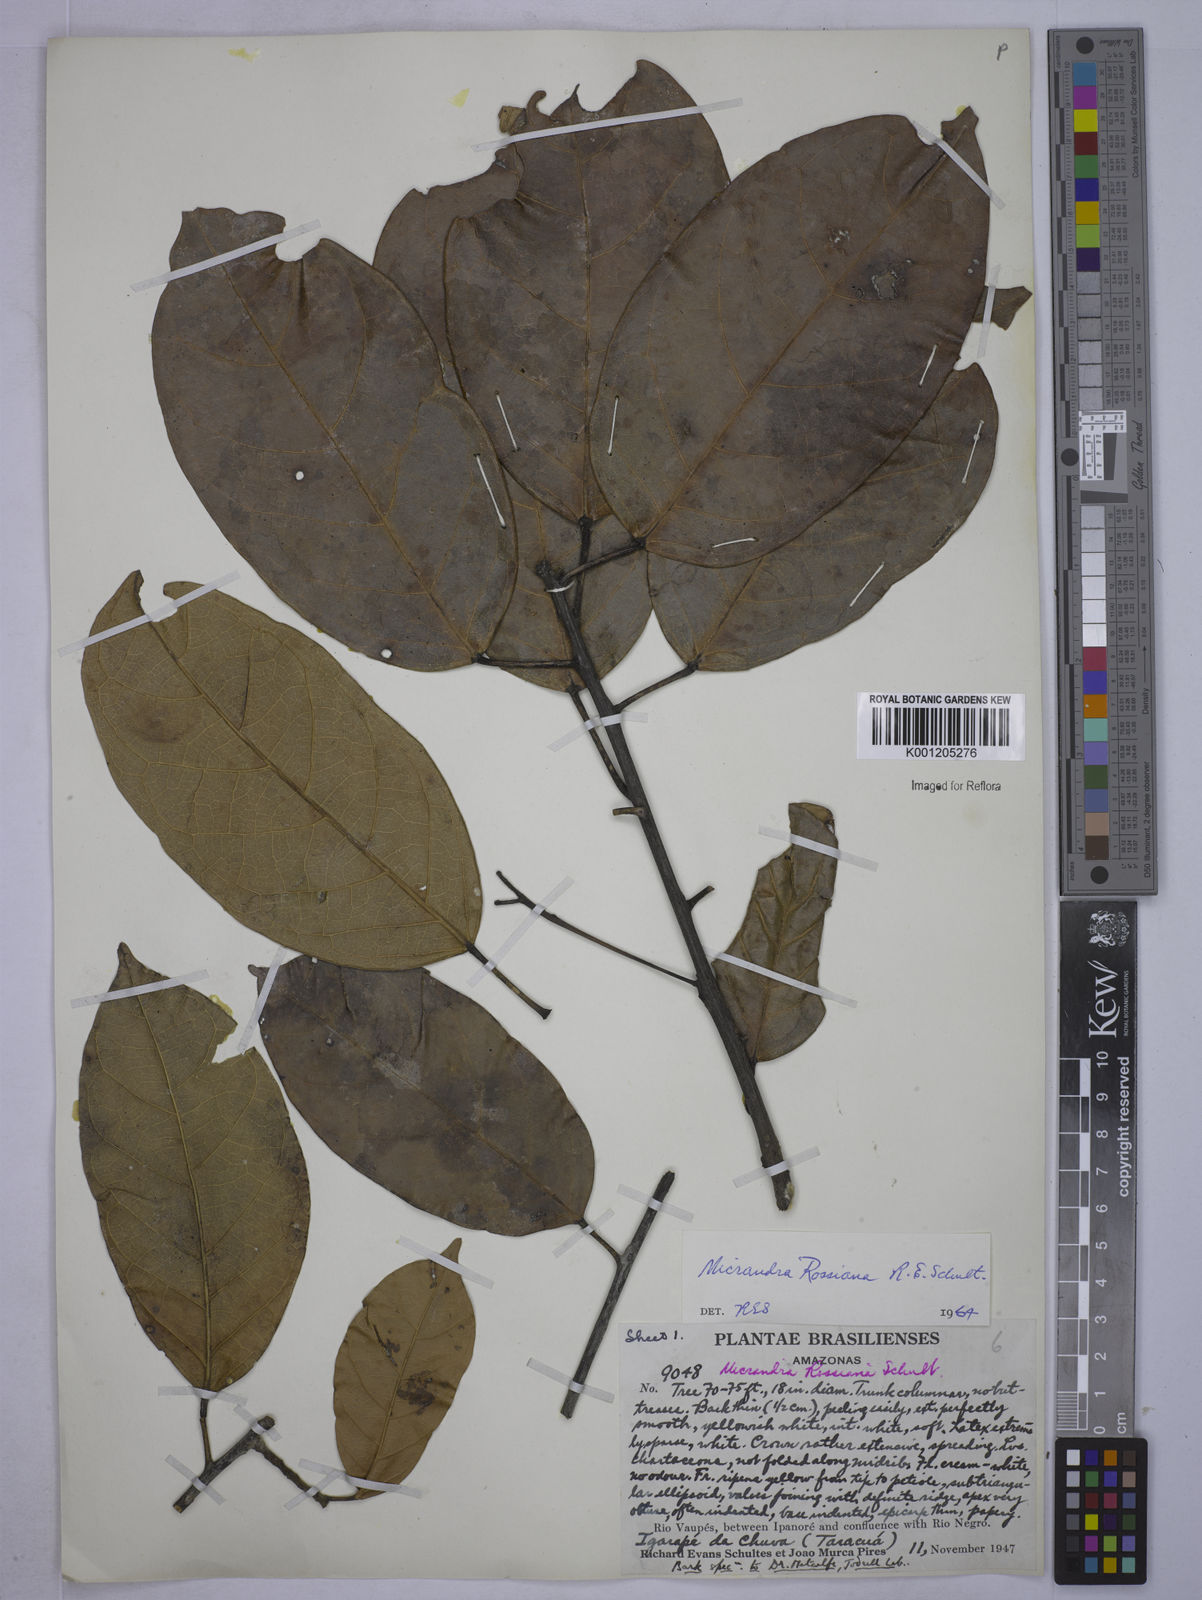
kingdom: Plantae
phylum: Tracheophyta
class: Magnoliopsida
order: Malpighiales
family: Euphorbiaceae
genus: Micrandra
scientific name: Micrandra rossiana
